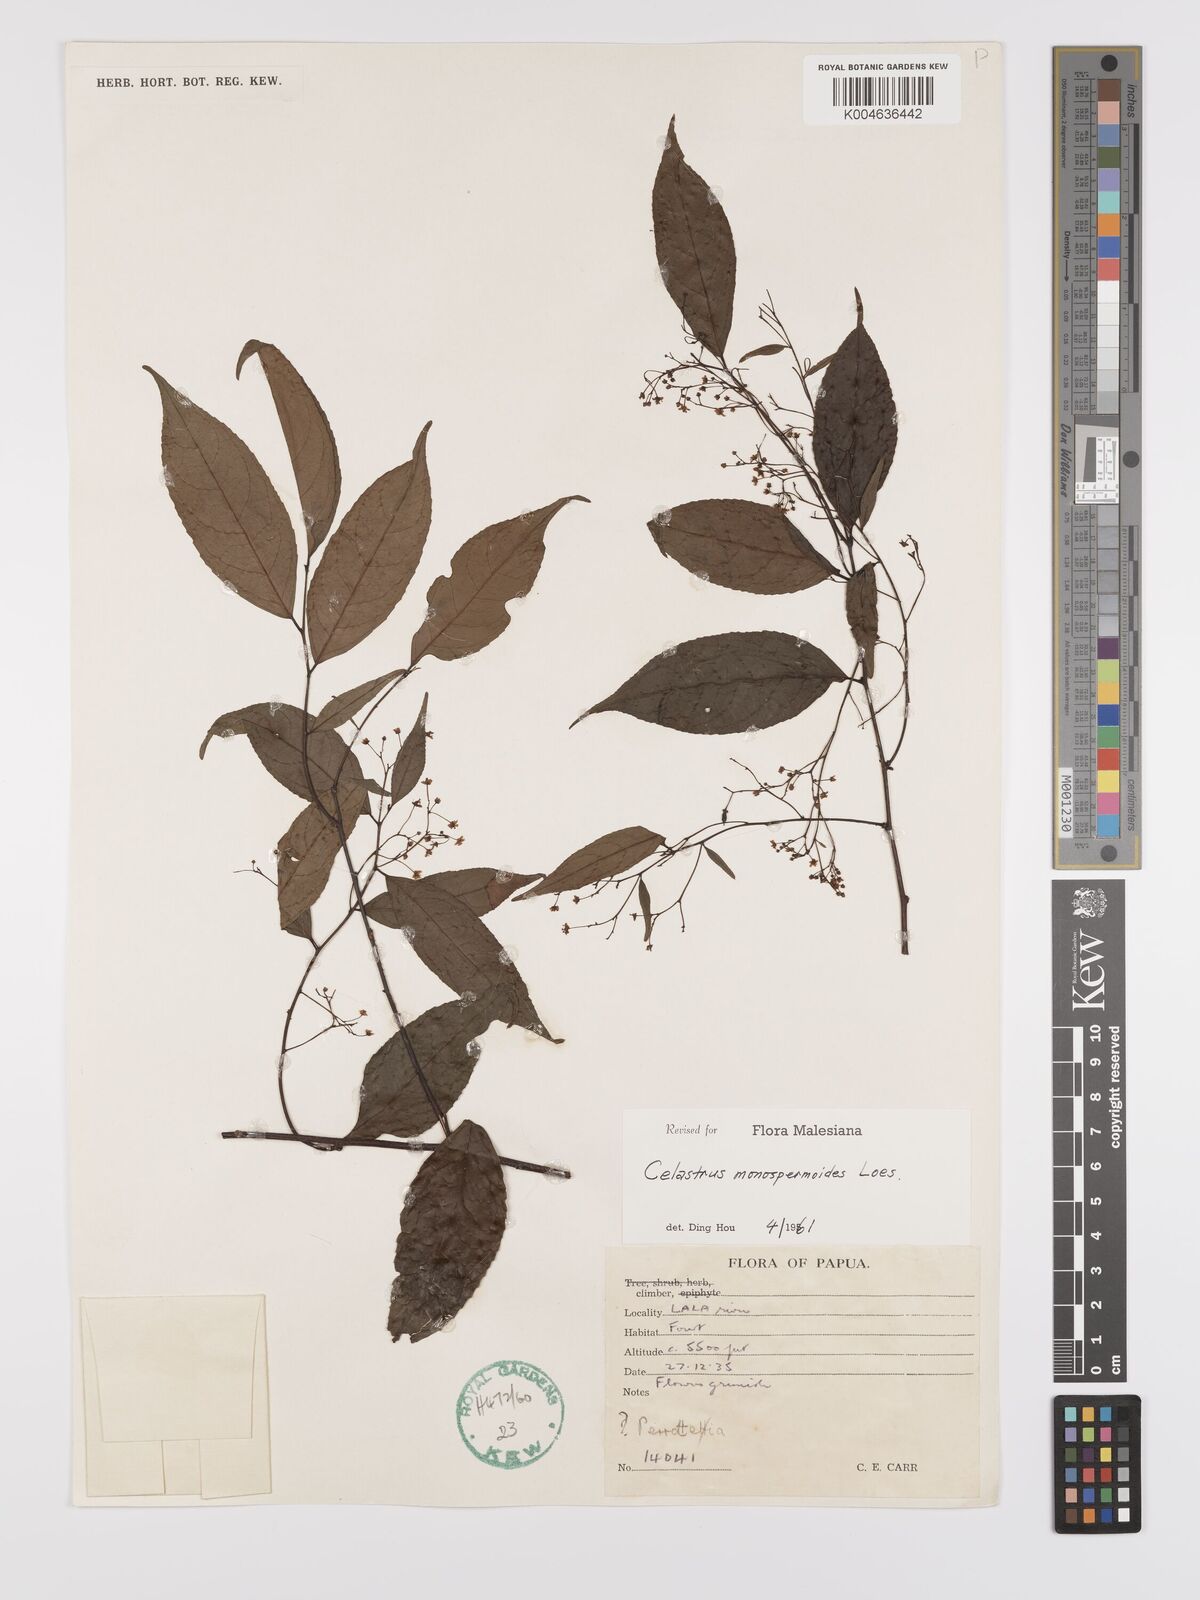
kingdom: Plantae
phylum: Tracheophyta
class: Magnoliopsida
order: Celastrales
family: Celastraceae
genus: Celastrus
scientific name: Celastrus monospermoides
